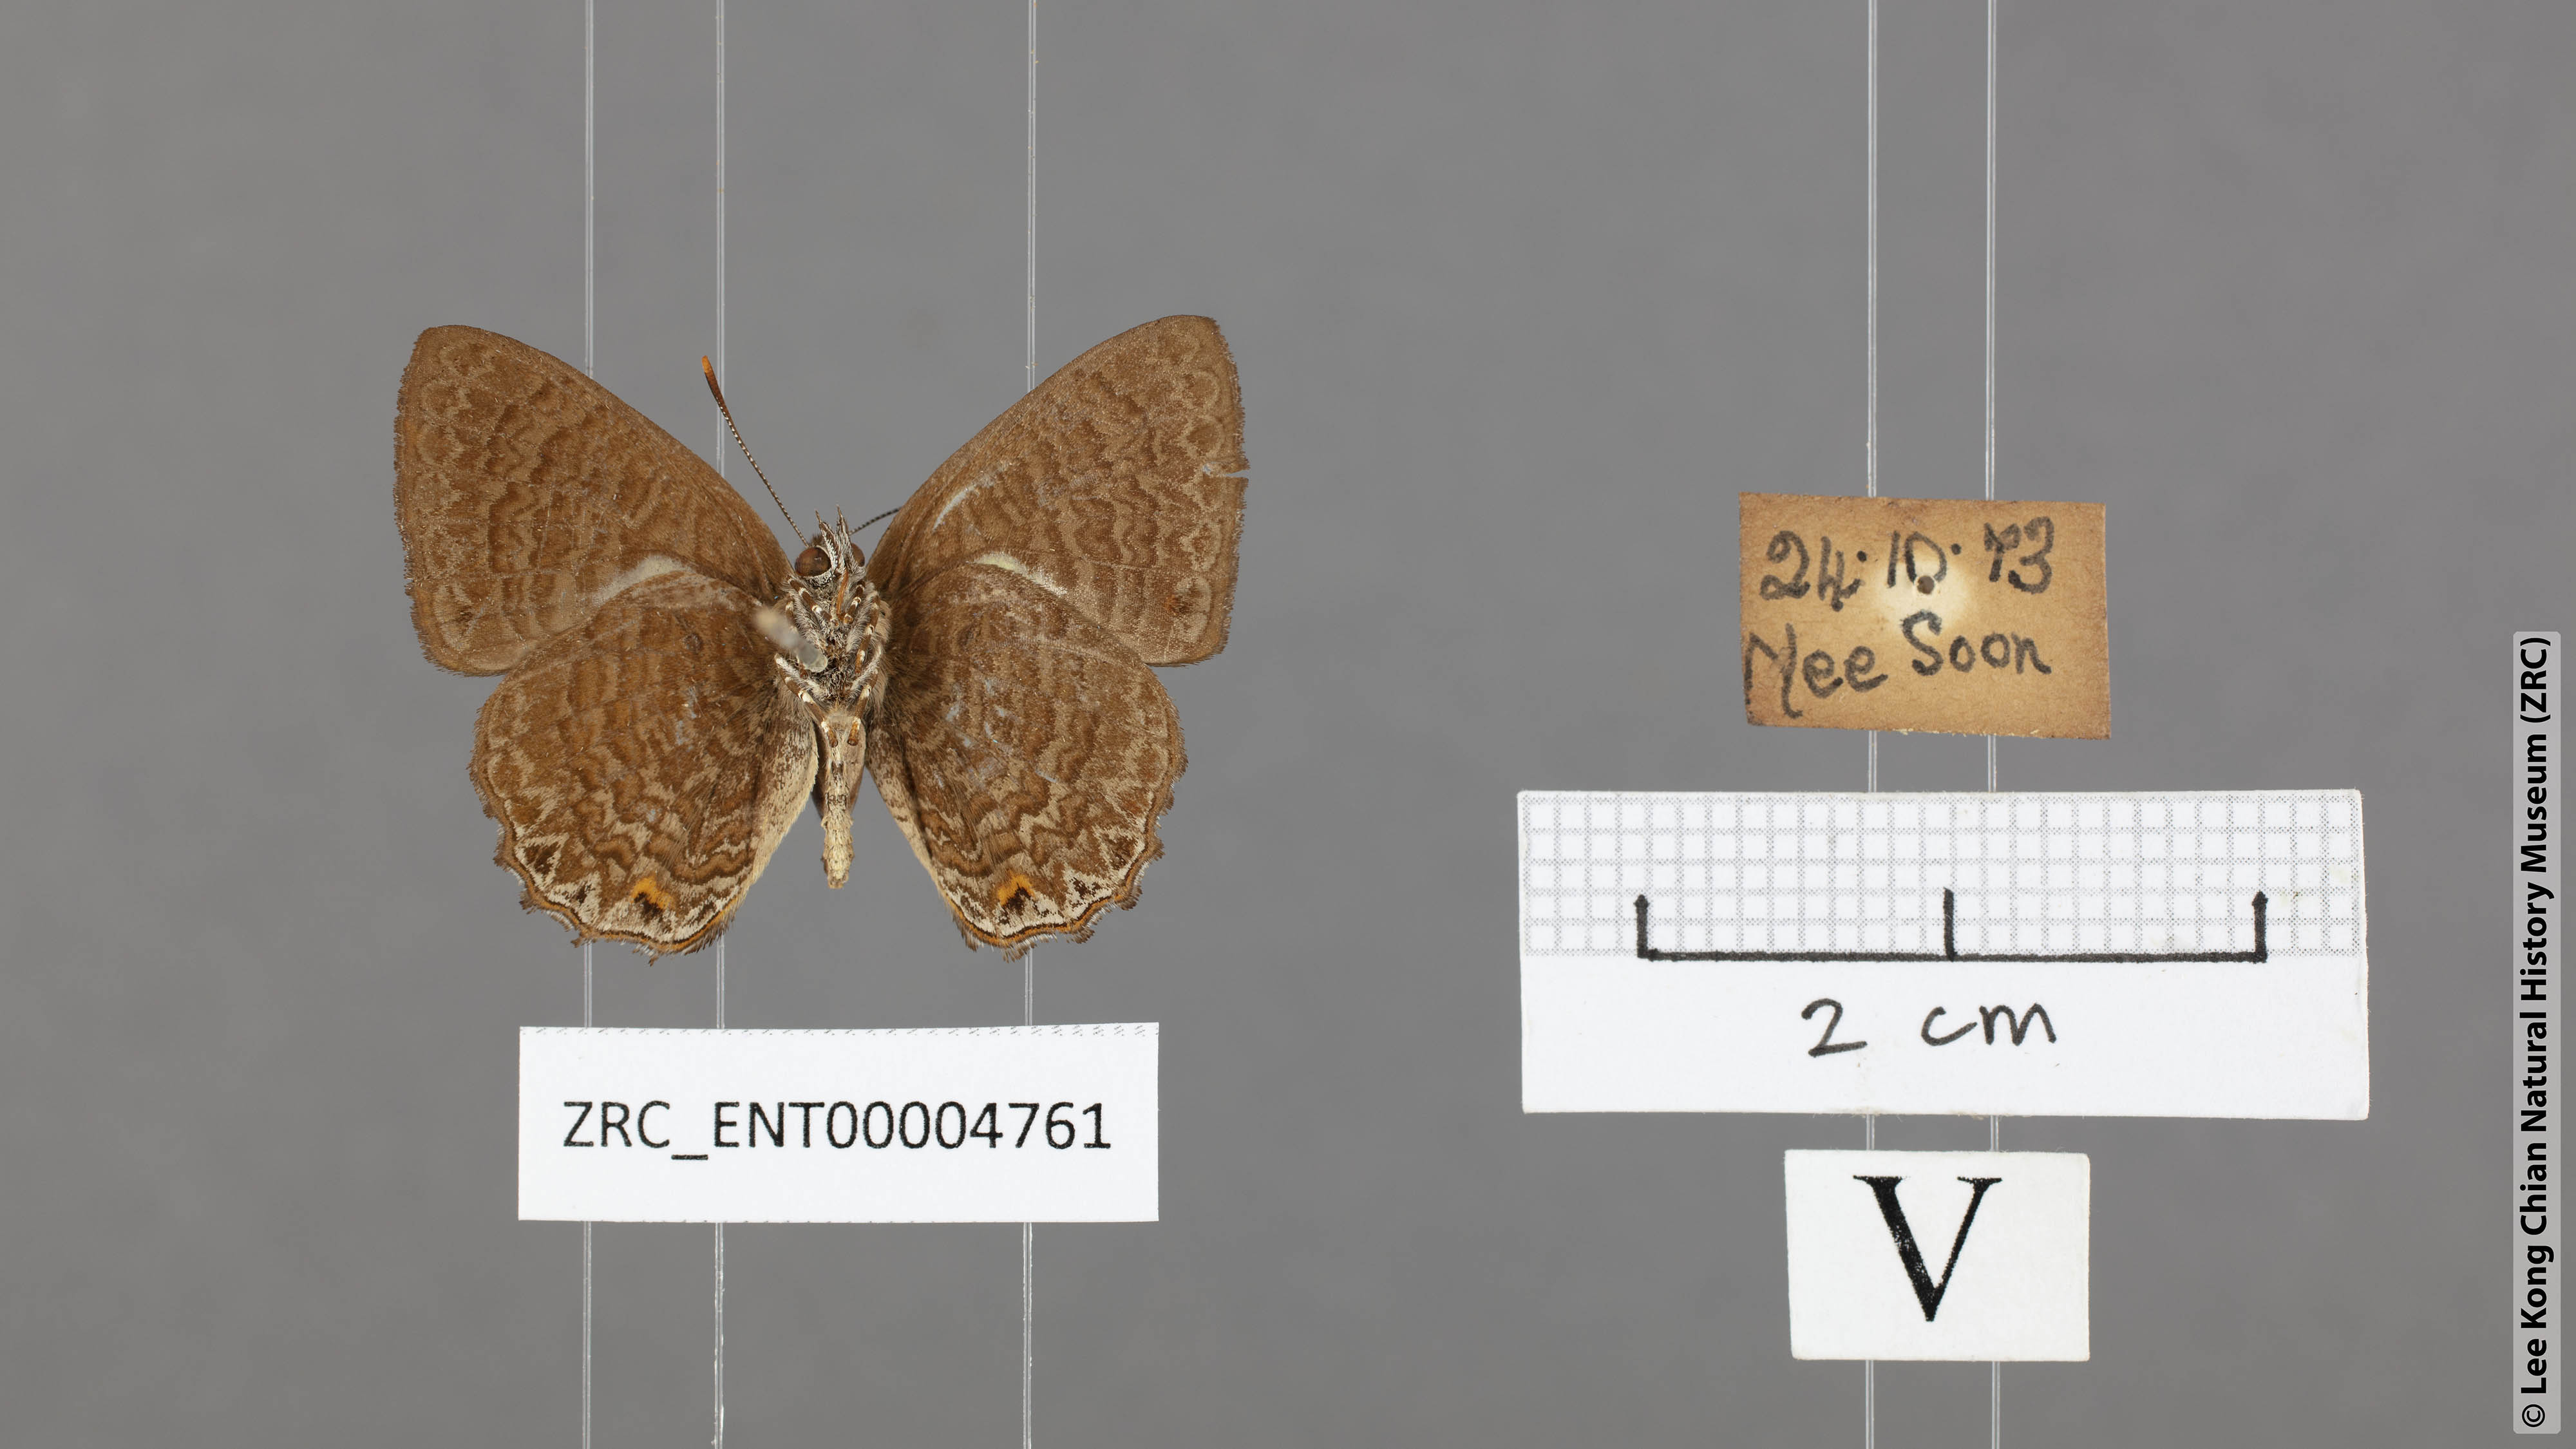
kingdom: Animalia
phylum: Arthropoda
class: Insecta
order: Lepidoptera
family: Lycaenidae
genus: Poritia
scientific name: Poritia philota
